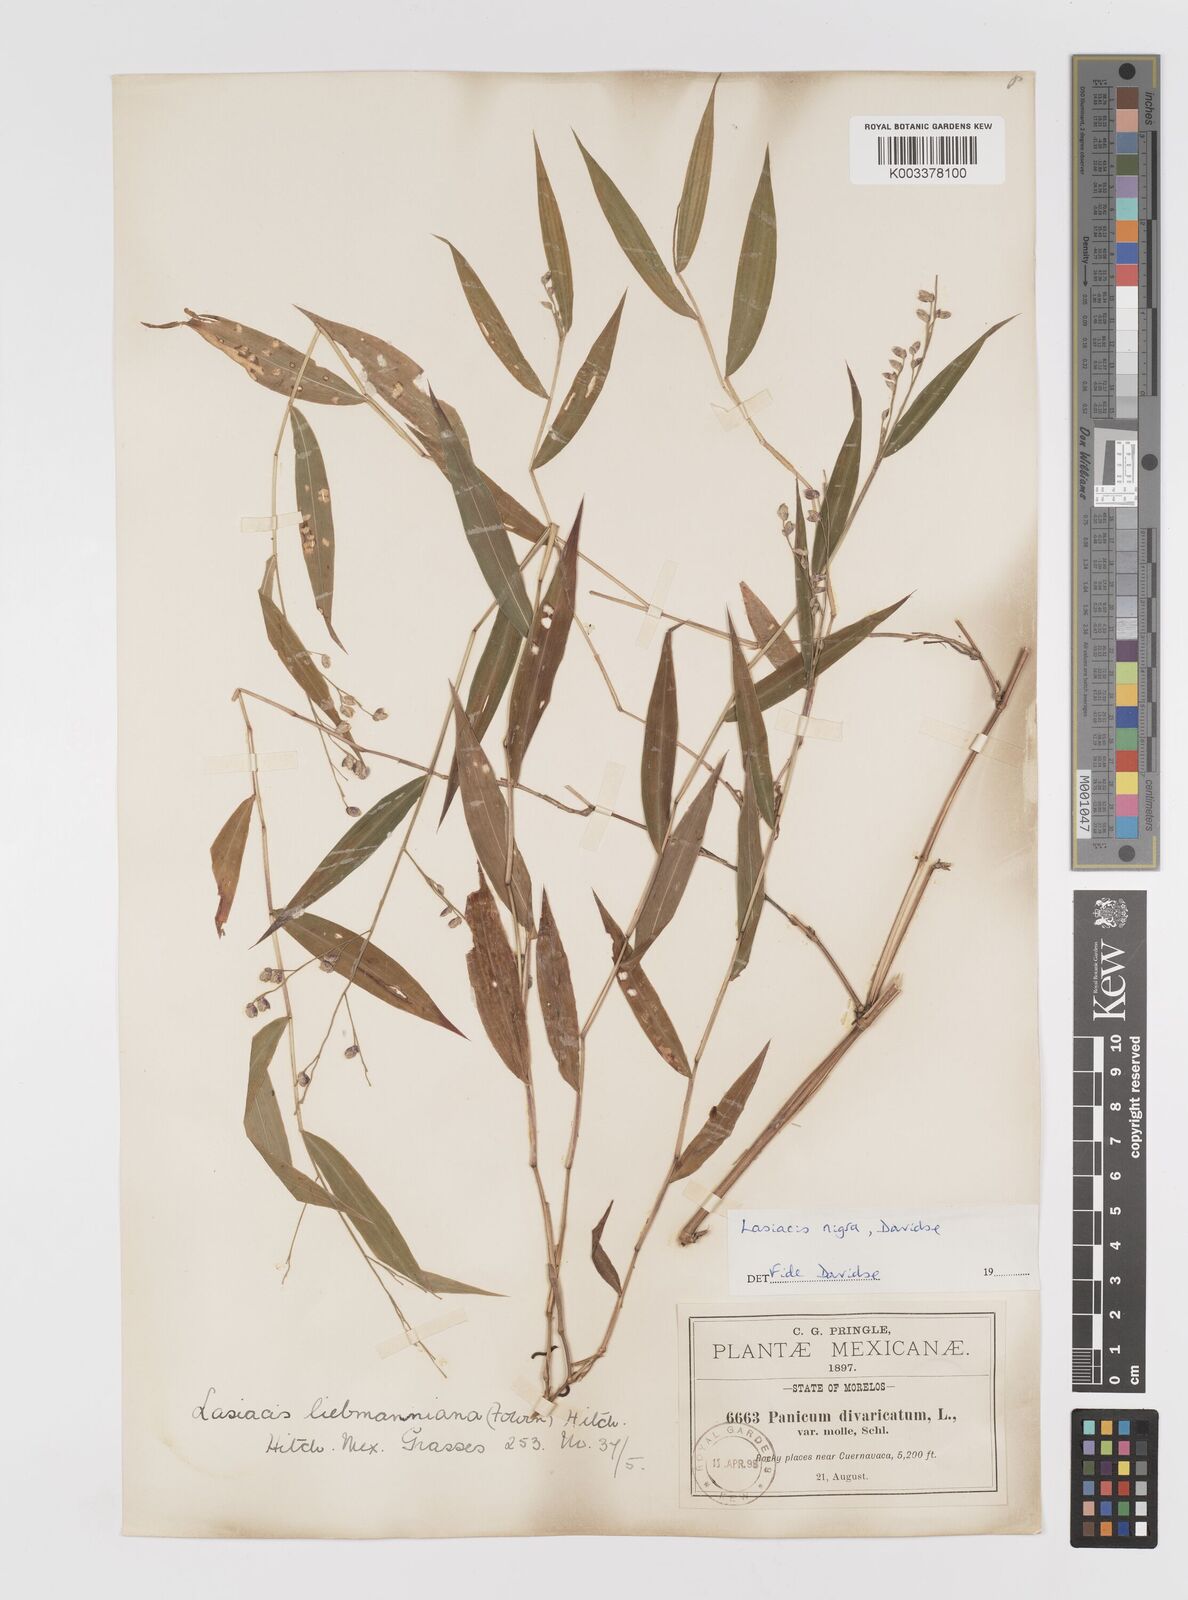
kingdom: Plantae
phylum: Tracheophyta
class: Liliopsida
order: Poales
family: Poaceae
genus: Lasiacis
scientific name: Lasiacis nigra
